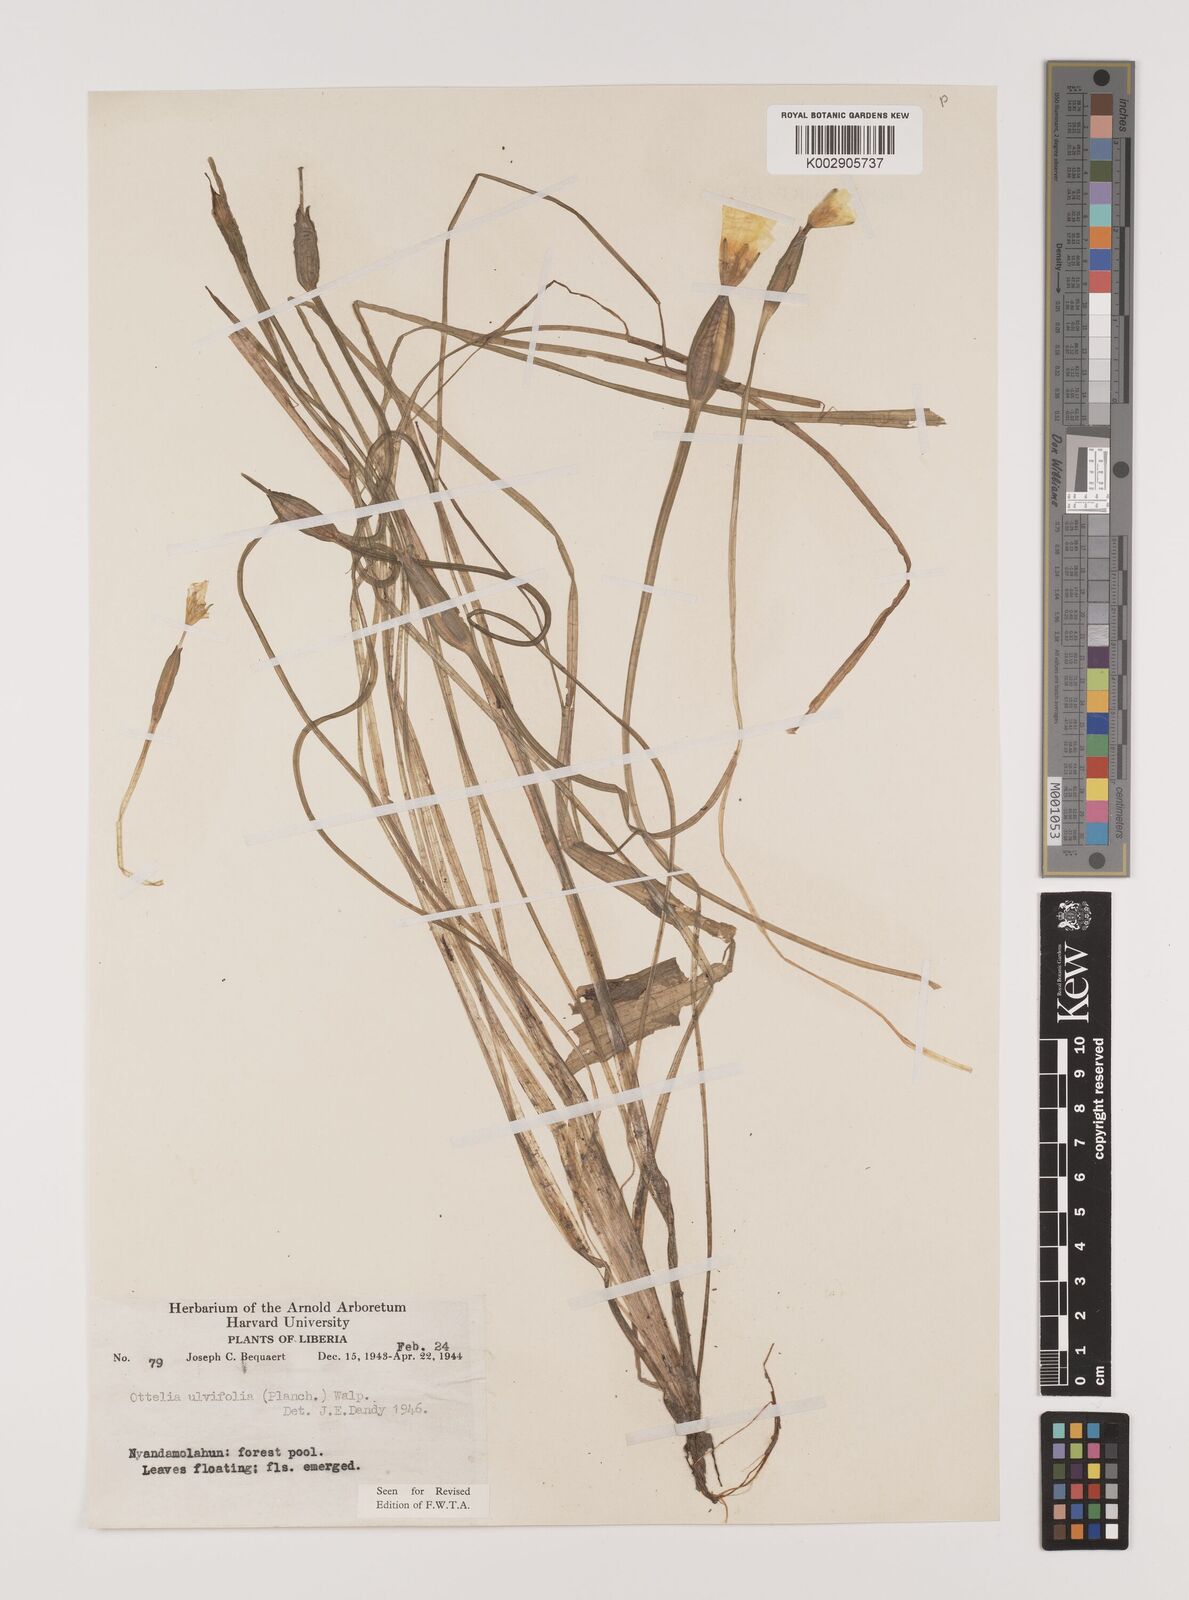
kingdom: Plantae
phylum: Tracheophyta
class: Liliopsida
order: Alismatales
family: Hydrocharitaceae
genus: Ottelia
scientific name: Ottelia ulvifolia
